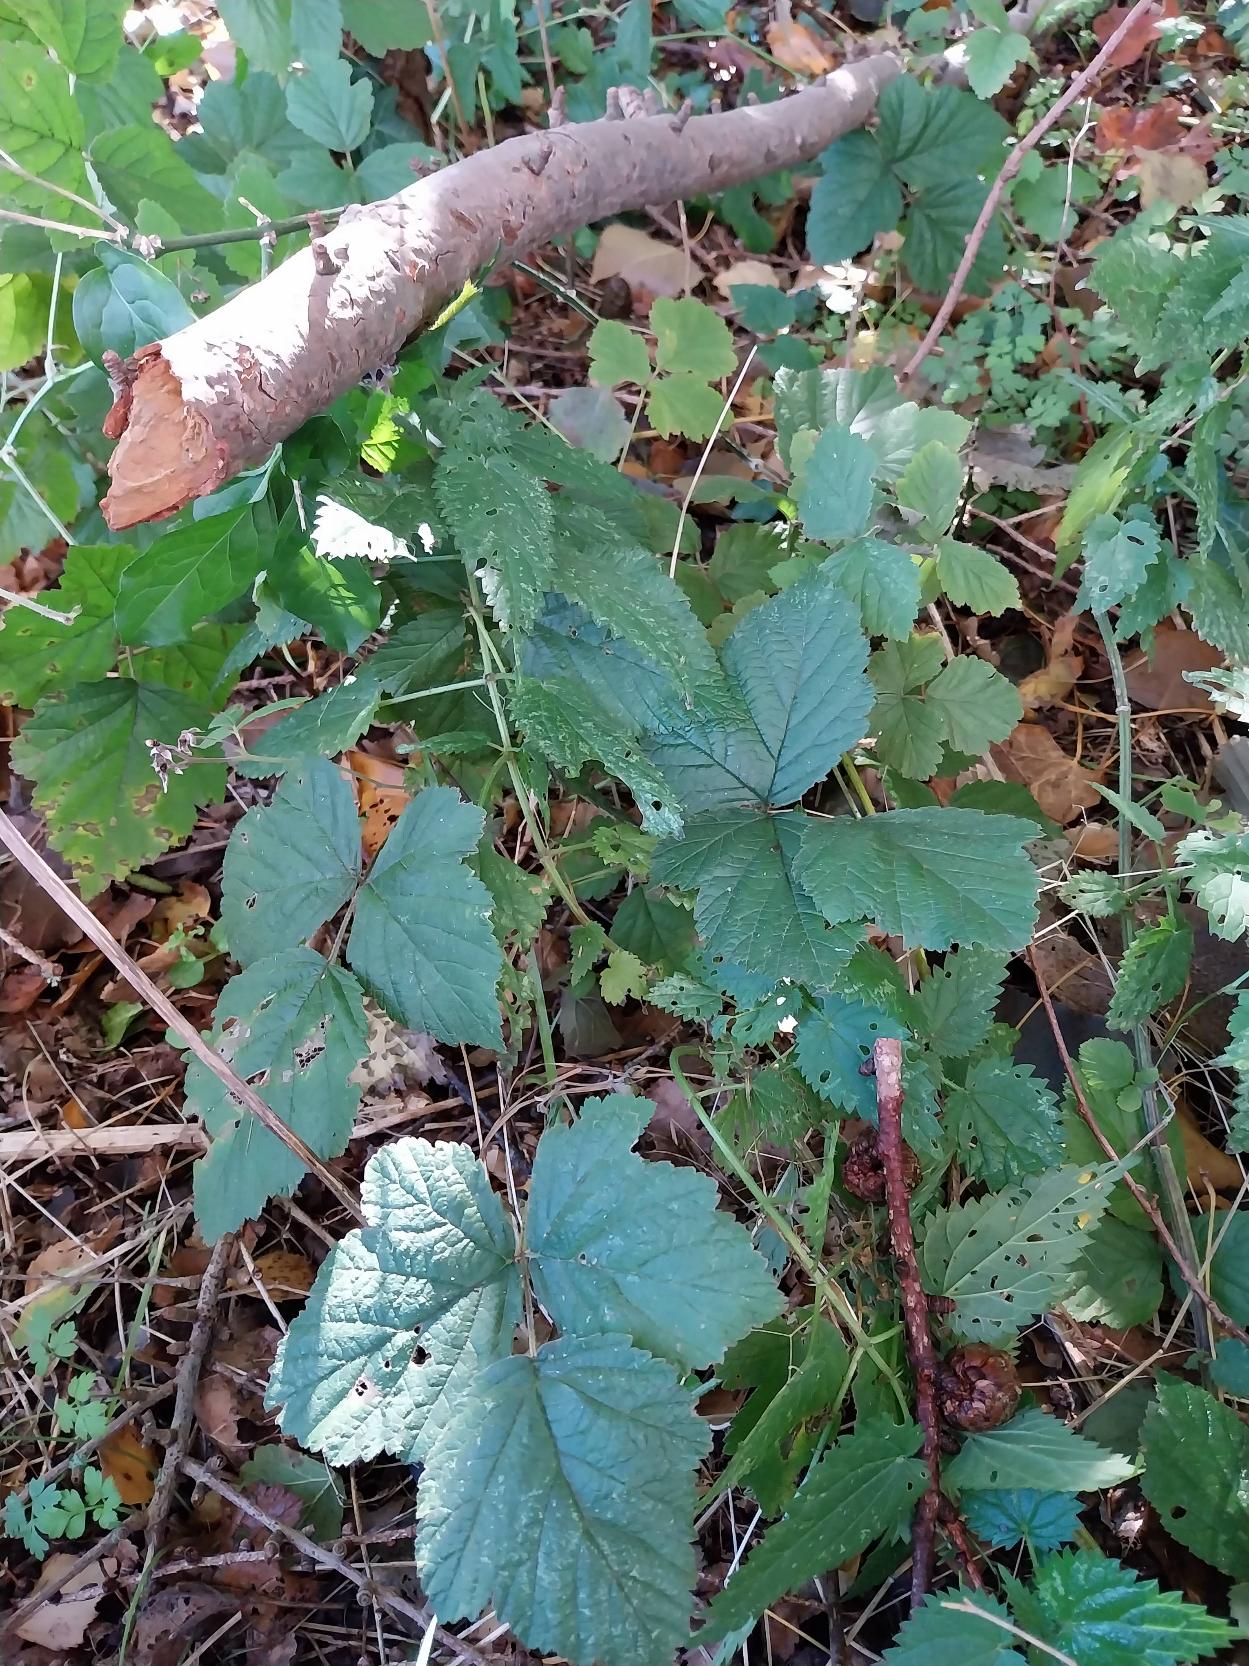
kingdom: Plantae
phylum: Tracheophyta
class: Magnoliopsida
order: Rosales
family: Rosaceae
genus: Rubus
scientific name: Rubus caesius
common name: Korbær
